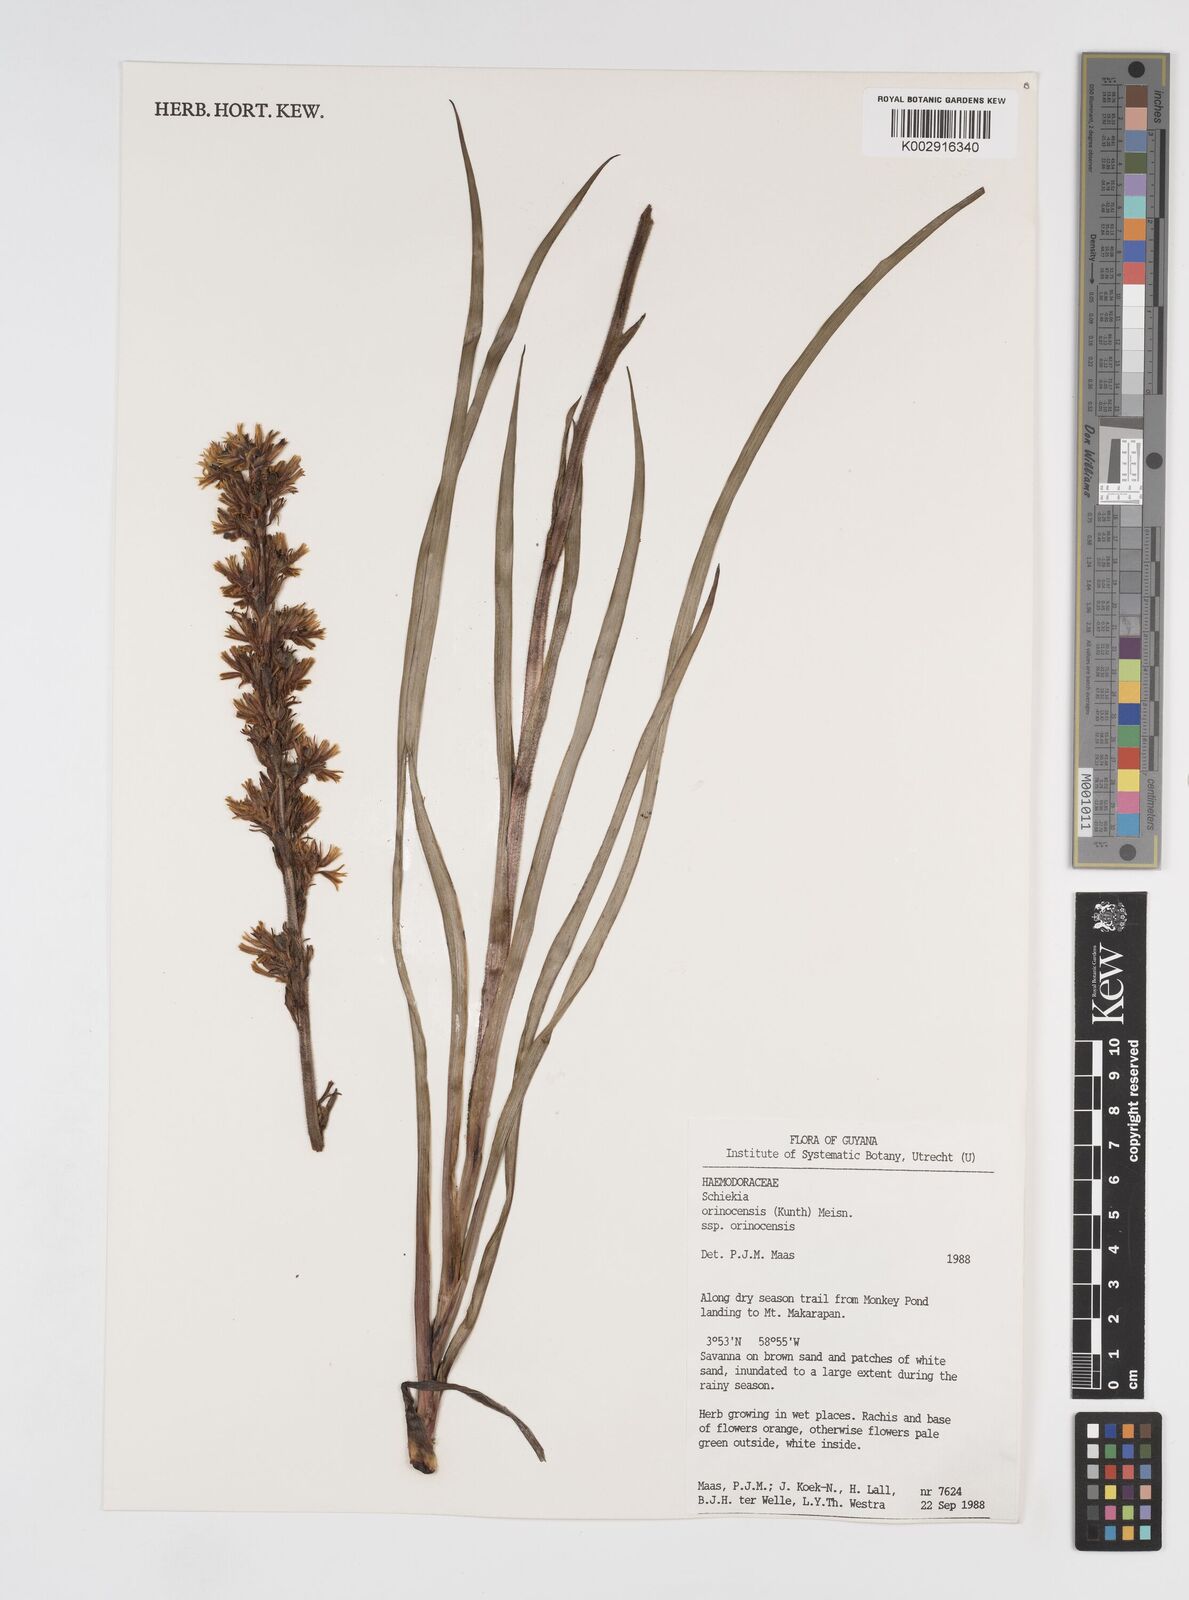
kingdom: Plantae
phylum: Tracheophyta
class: Liliopsida
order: Commelinales
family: Haemodoraceae
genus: Schiekia
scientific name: Schiekia orinocensis
